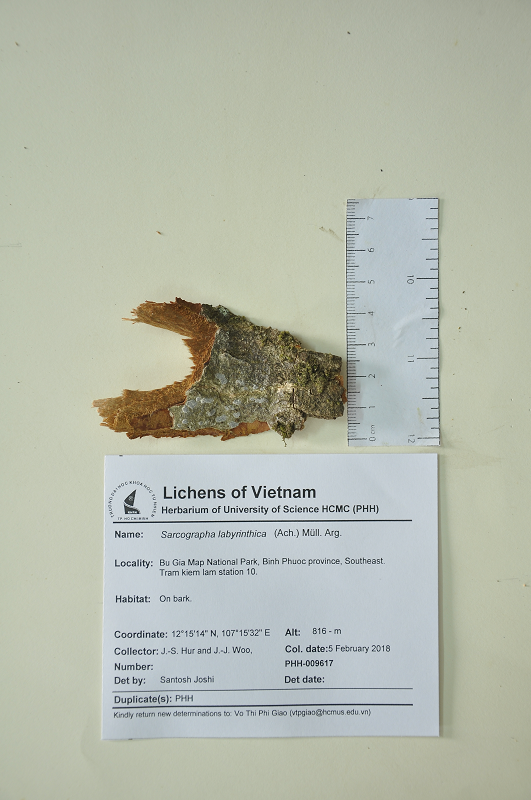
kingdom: Fungi
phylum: Ascomycota
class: Lecanoromycetes
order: Ostropales
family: Graphidaceae
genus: Sarcographa
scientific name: Sarcographa labyrinthica
